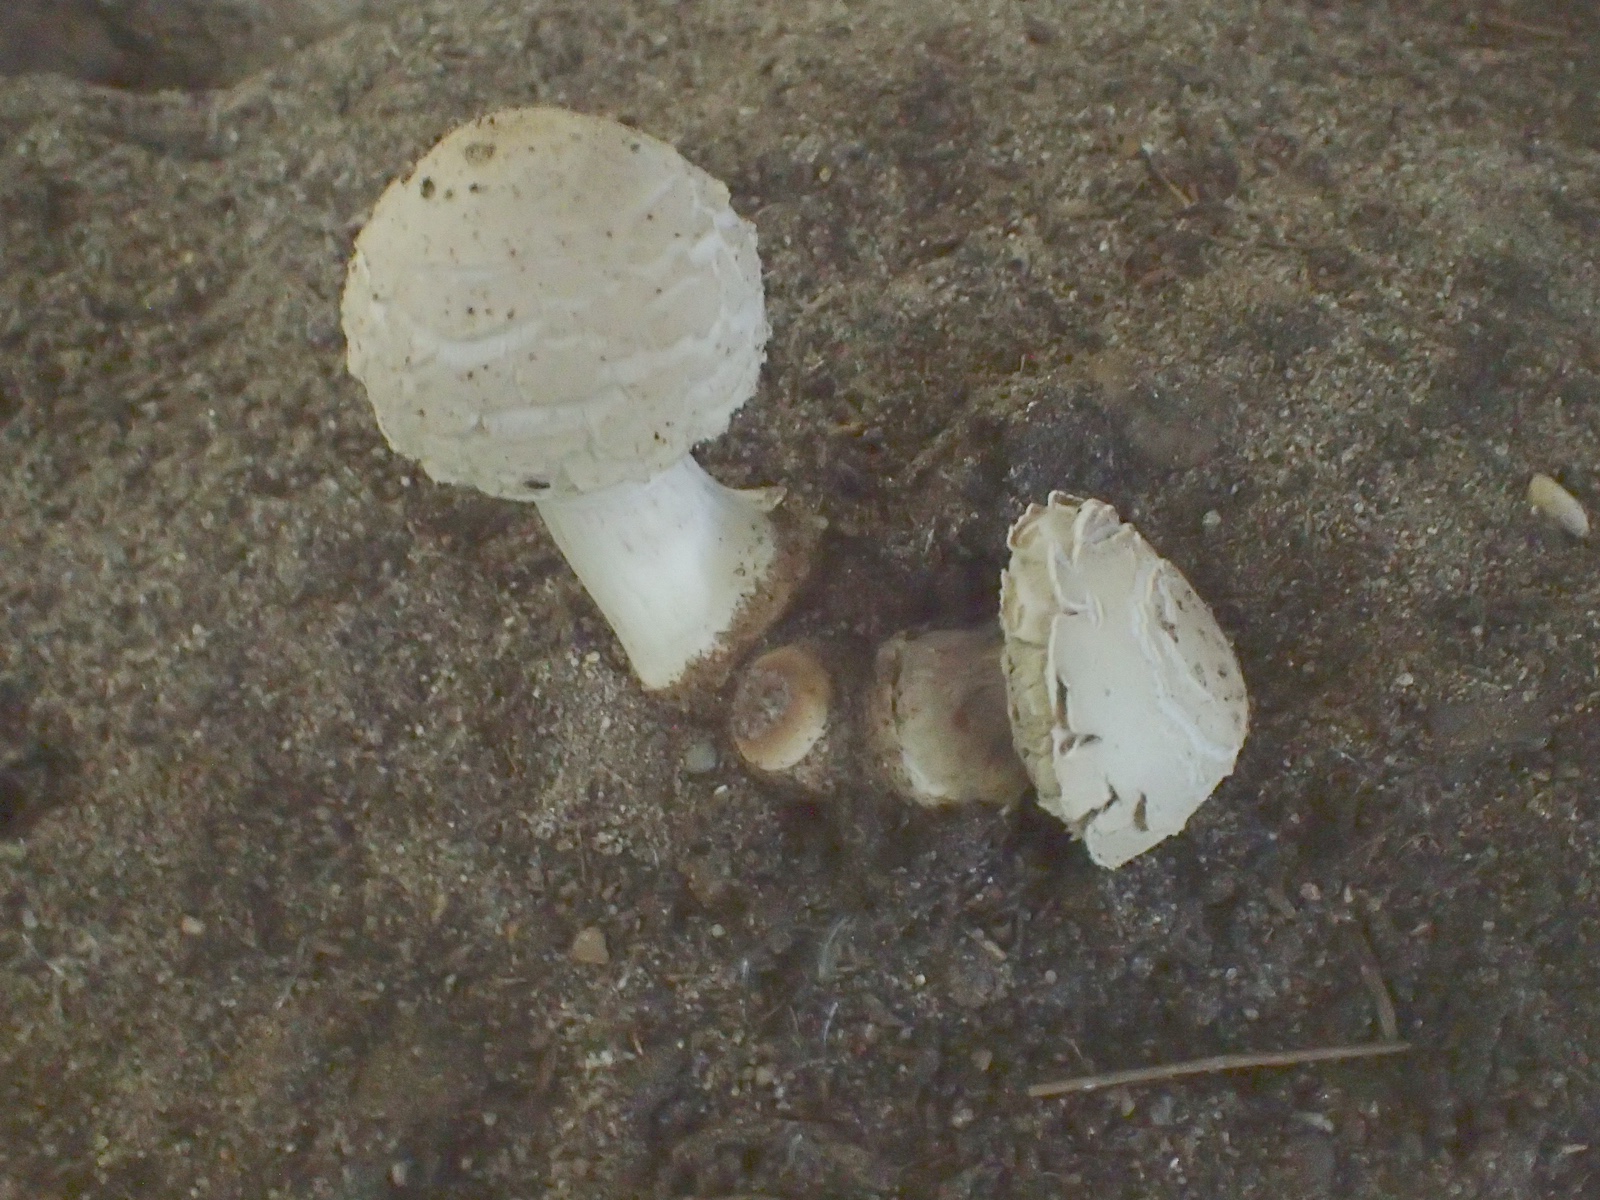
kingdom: Fungi
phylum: Basidiomycota
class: Agaricomycetes
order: Agaricales
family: Agaricaceae
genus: Chlorophyllum
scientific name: Chlorophyllum
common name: rabarberhat
